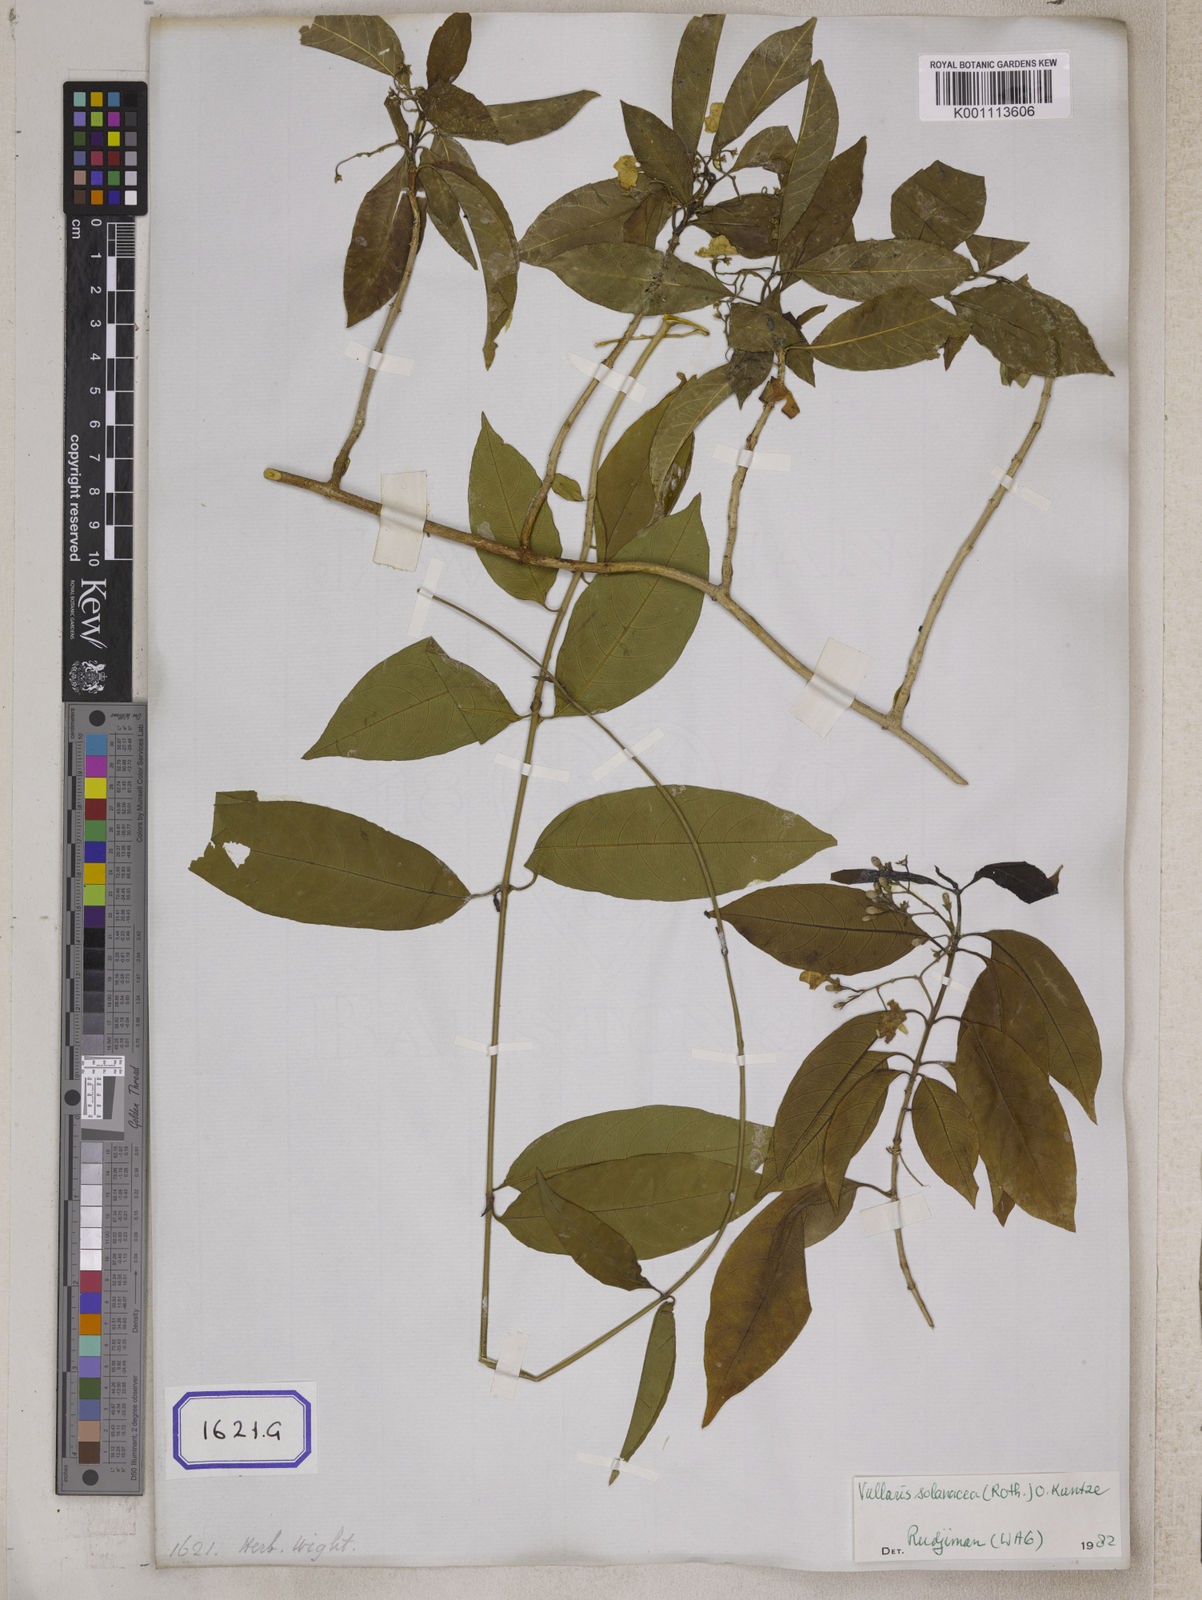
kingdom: Plantae
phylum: Tracheophyta
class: Magnoliopsida
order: Gentianales
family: Apocynaceae
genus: Vallaris
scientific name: Vallaris glabra
